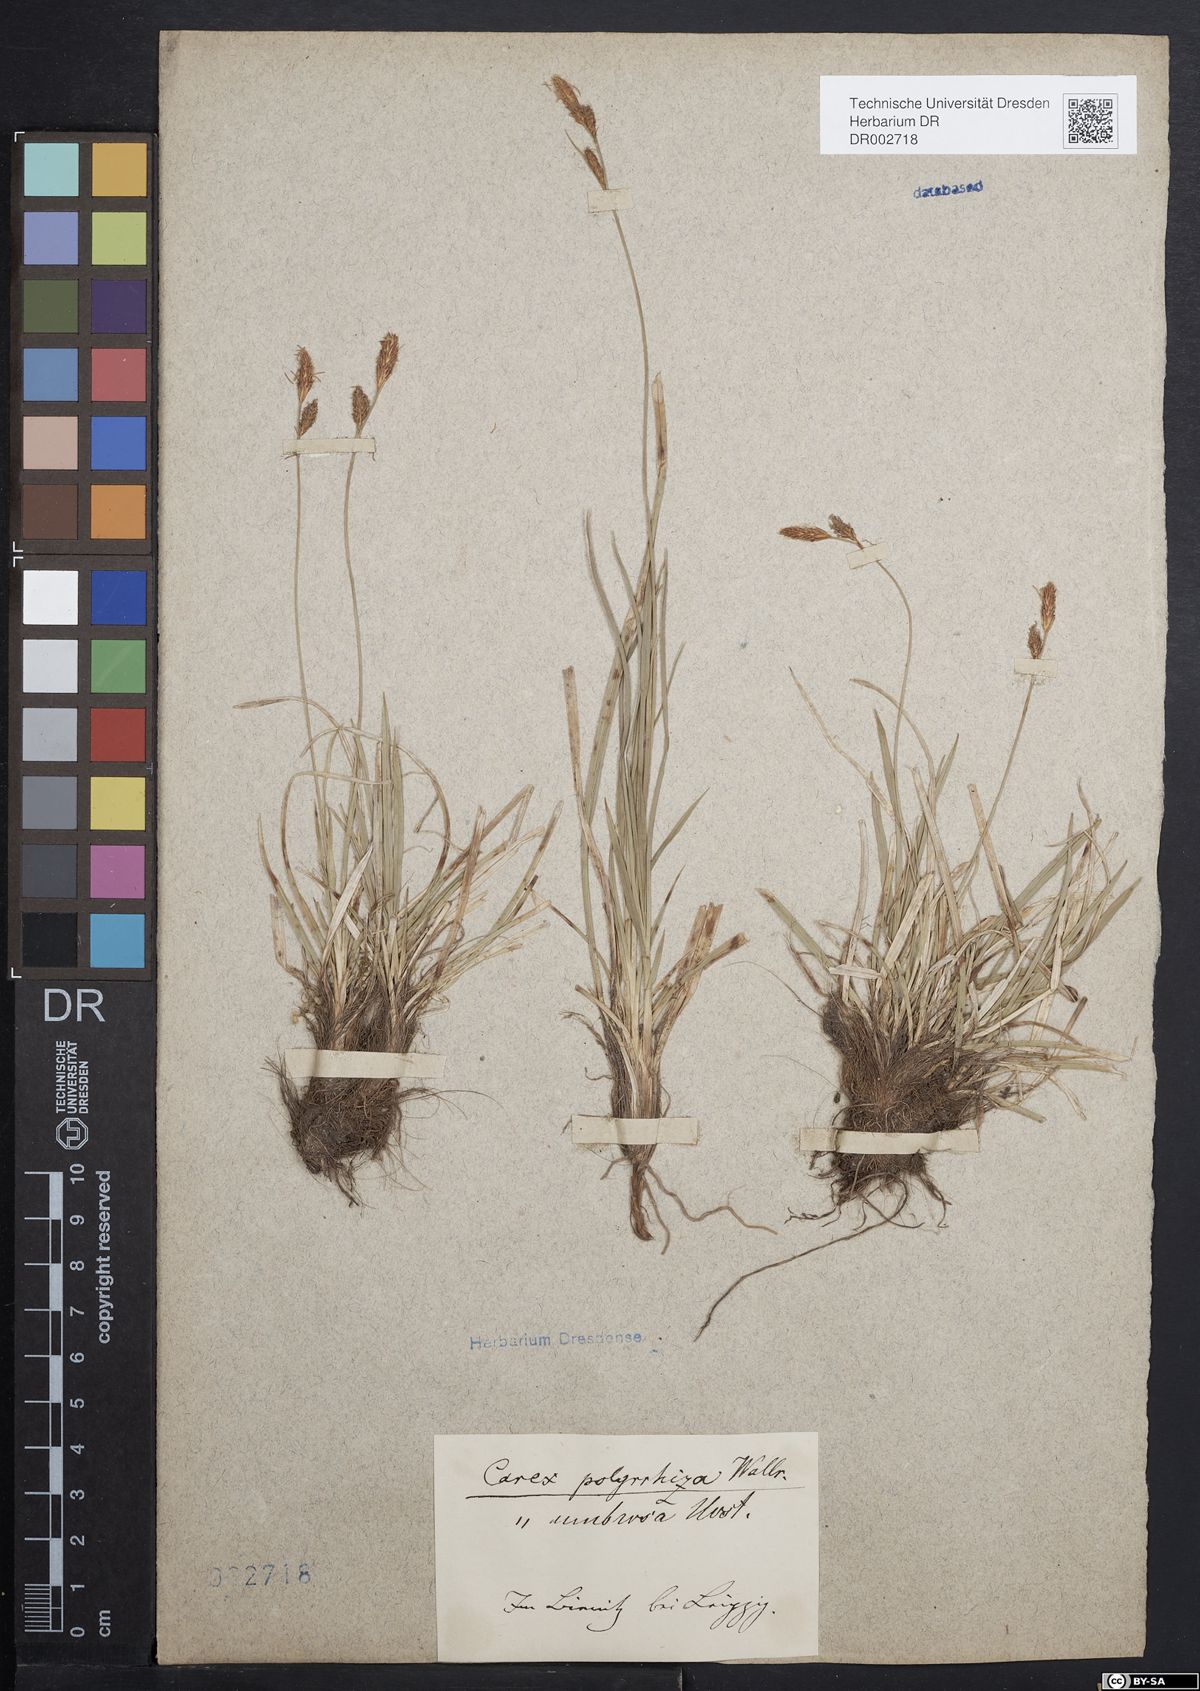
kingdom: Plantae
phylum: Tracheophyta
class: Liliopsida
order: Poales
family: Cyperaceae
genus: Carex
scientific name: Carex umbrosa
